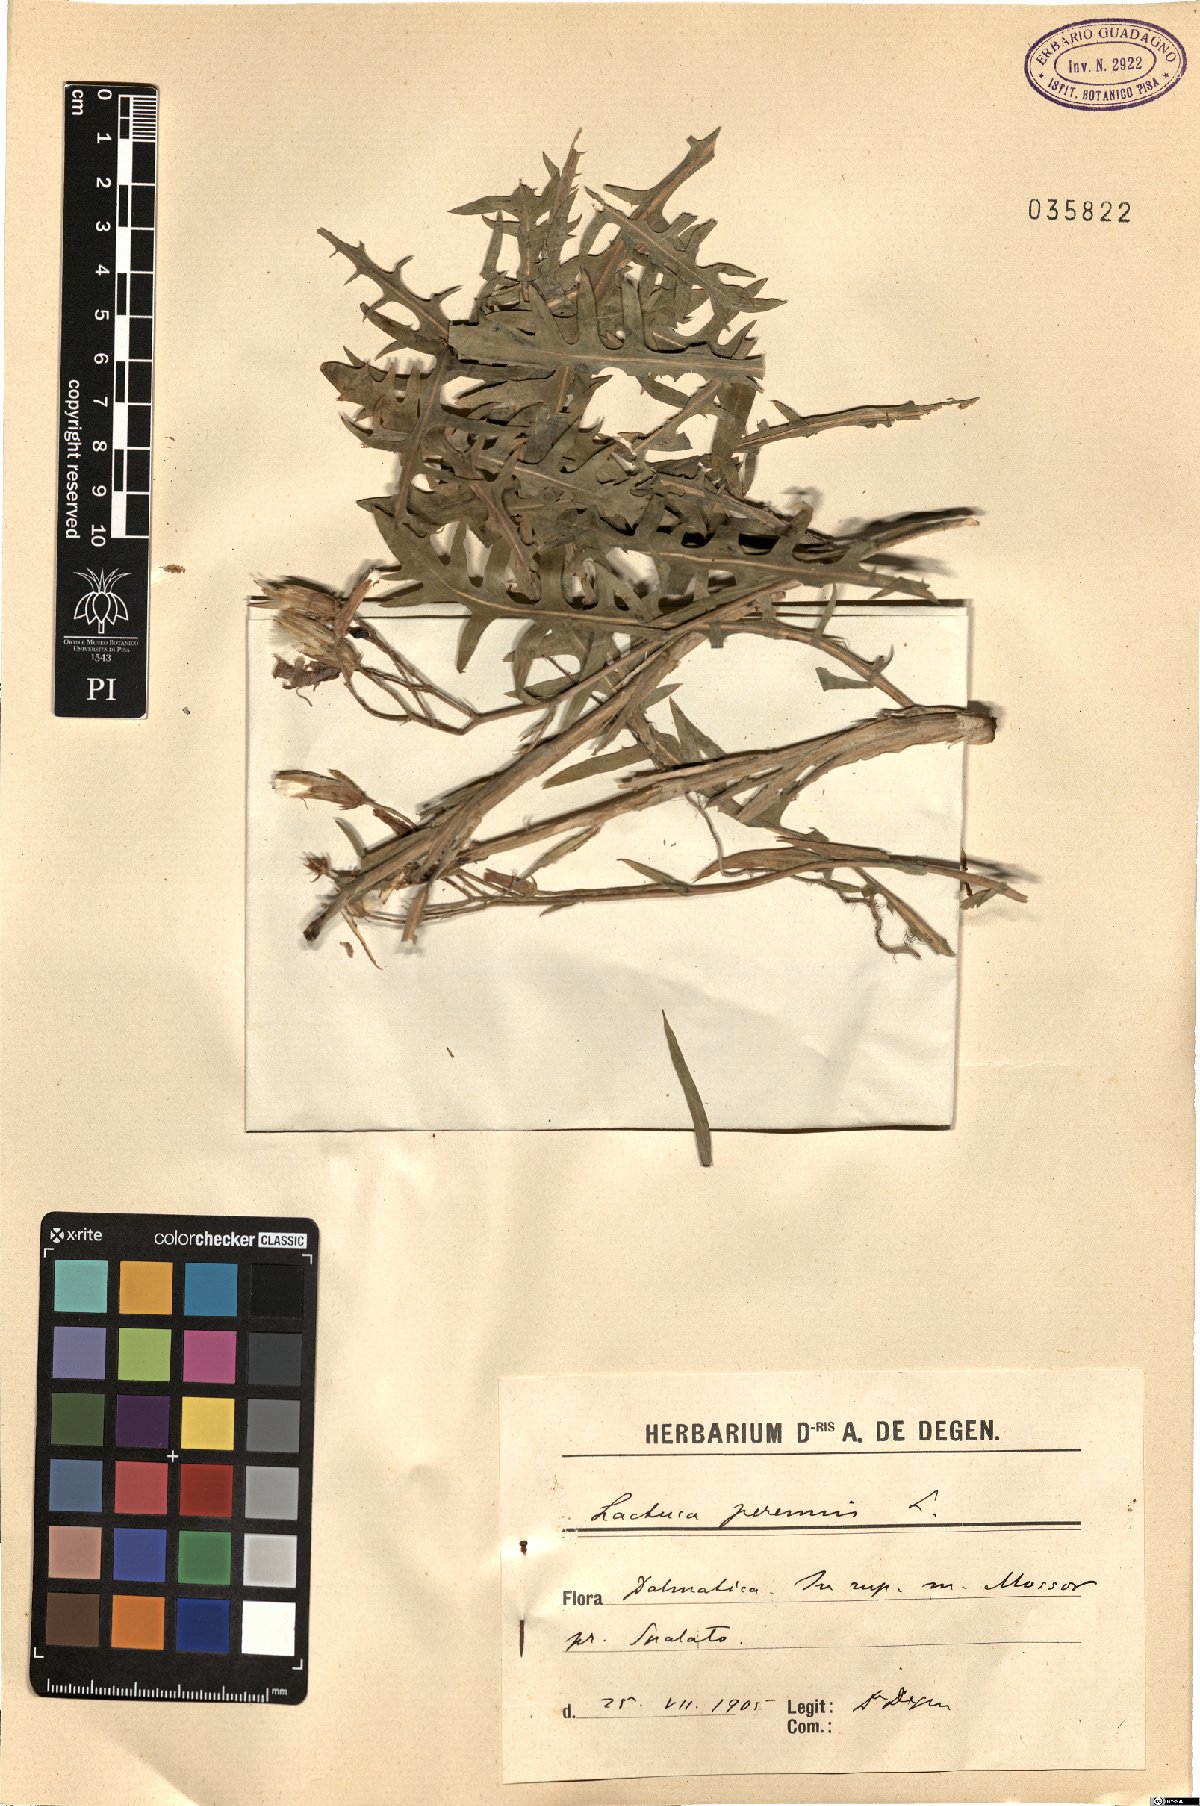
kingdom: Plantae
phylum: Tracheophyta
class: Magnoliopsida
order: Asterales
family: Asteraceae
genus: Lactuca
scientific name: Lactuca perennis
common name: Mountain lettuce
